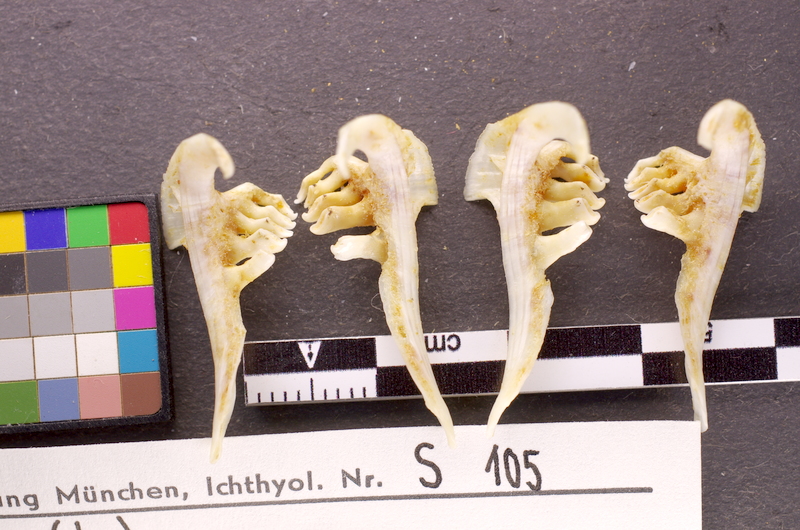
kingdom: Animalia
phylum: Chordata
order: Cypriniformes
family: Cyprinidae
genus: Abramis
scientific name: Abramis brama
